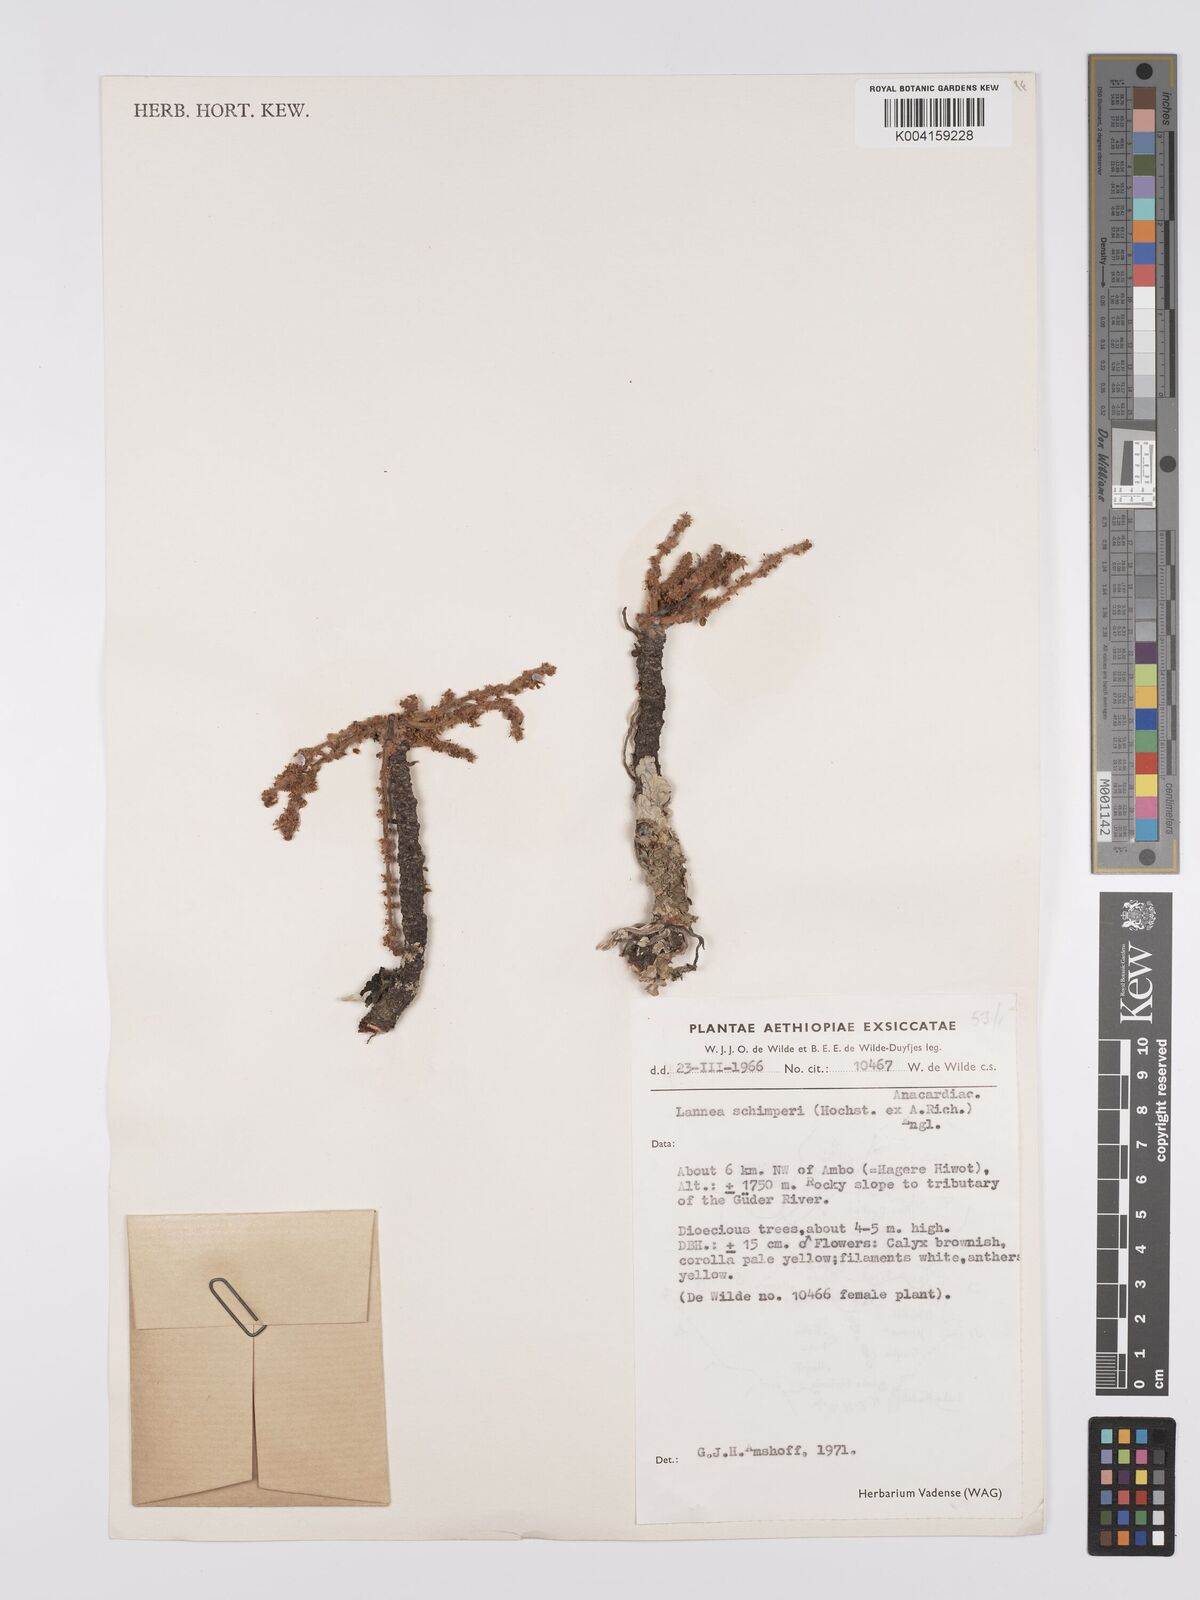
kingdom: Plantae
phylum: Tracheophyta
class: Magnoliopsida
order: Sapindales
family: Anacardiaceae
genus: Lannea
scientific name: Lannea schimperi
